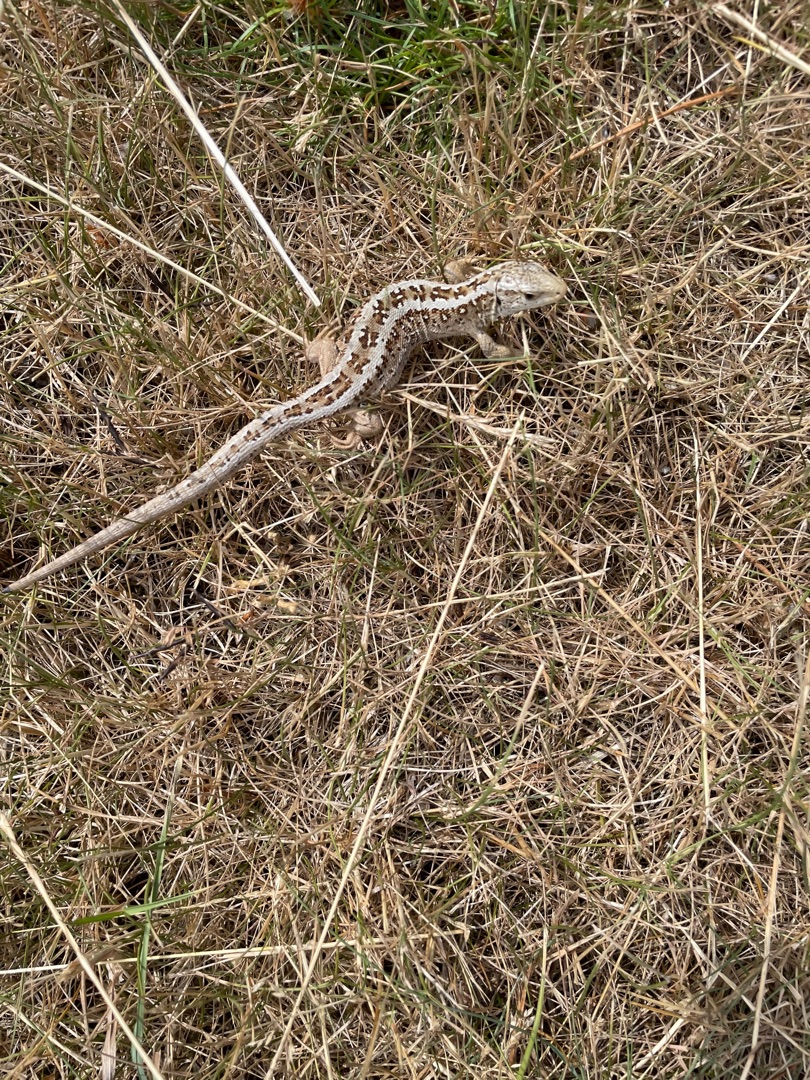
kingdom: Animalia
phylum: Chordata
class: Squamata
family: Lacertidae
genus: Lacerta
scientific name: Lacerta agilis
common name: Markfirben
